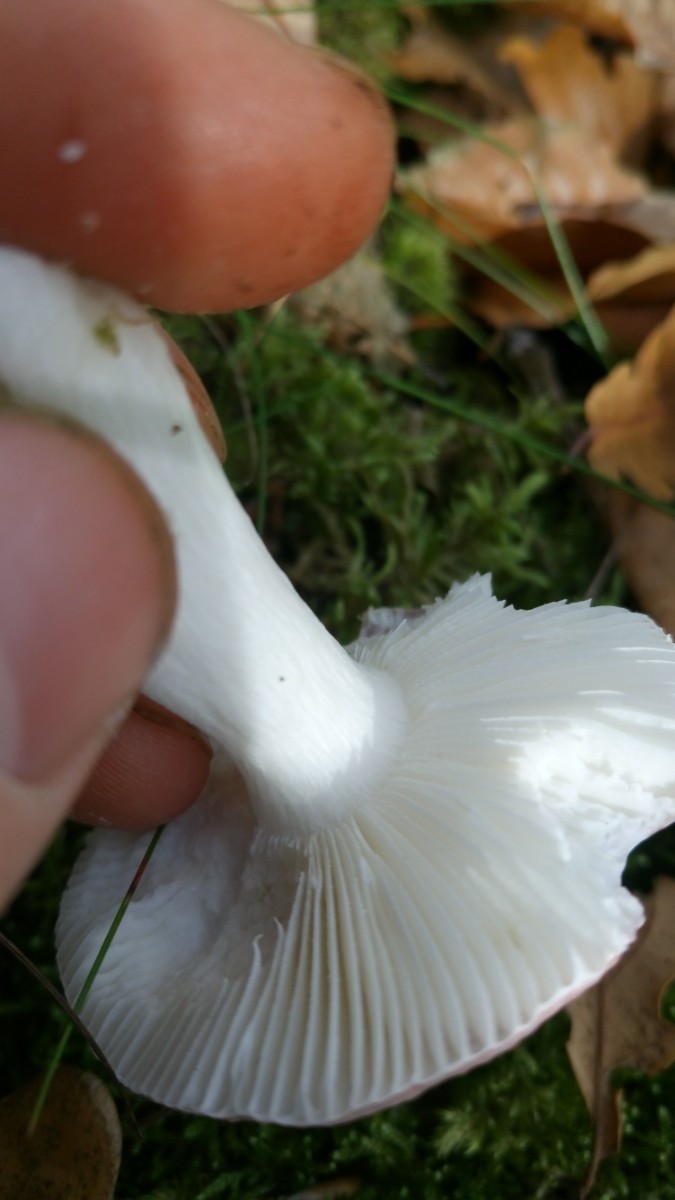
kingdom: Fungi
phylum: Basidiomycota
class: Agaricomycetes
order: Russulales
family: Russulaceae
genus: Russula
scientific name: Russula fragilis
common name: savbladet skørhat
